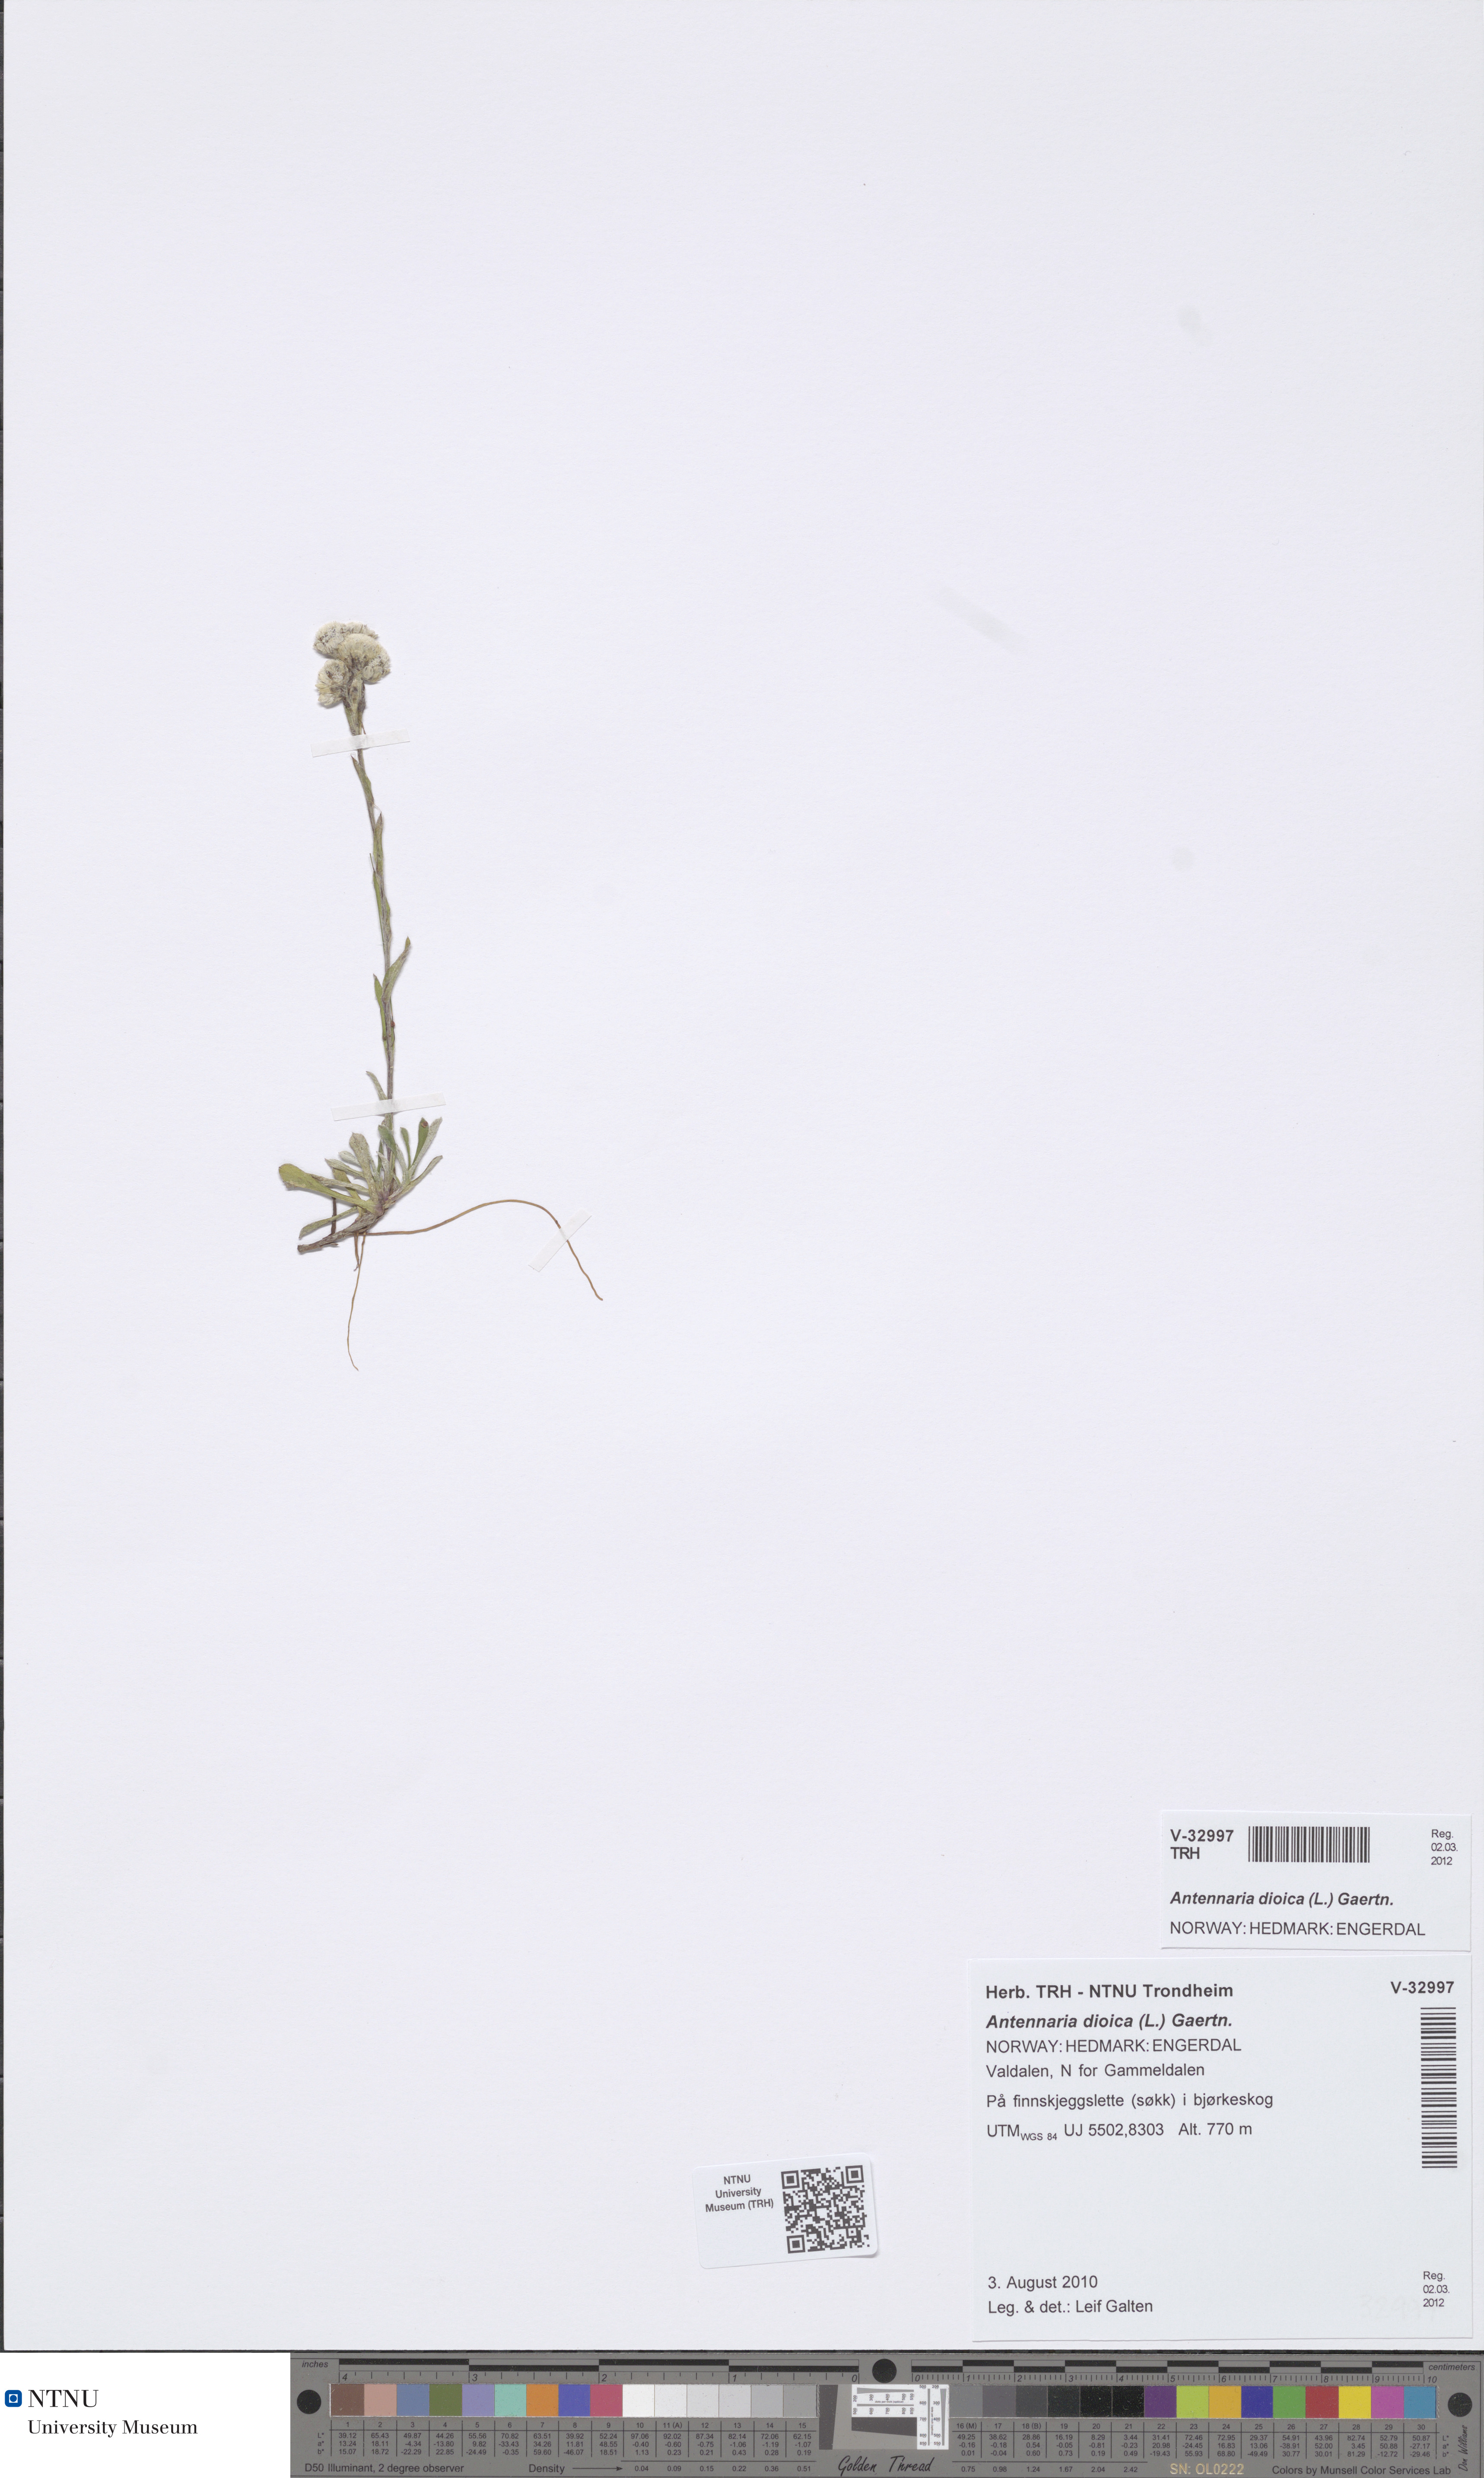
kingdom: Plantae
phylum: Tracheophyta
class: Magnoliopsida
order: Asterales
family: Asteraceae
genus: Antennaria
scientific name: Antennaria dioica
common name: Mountain everlasting
